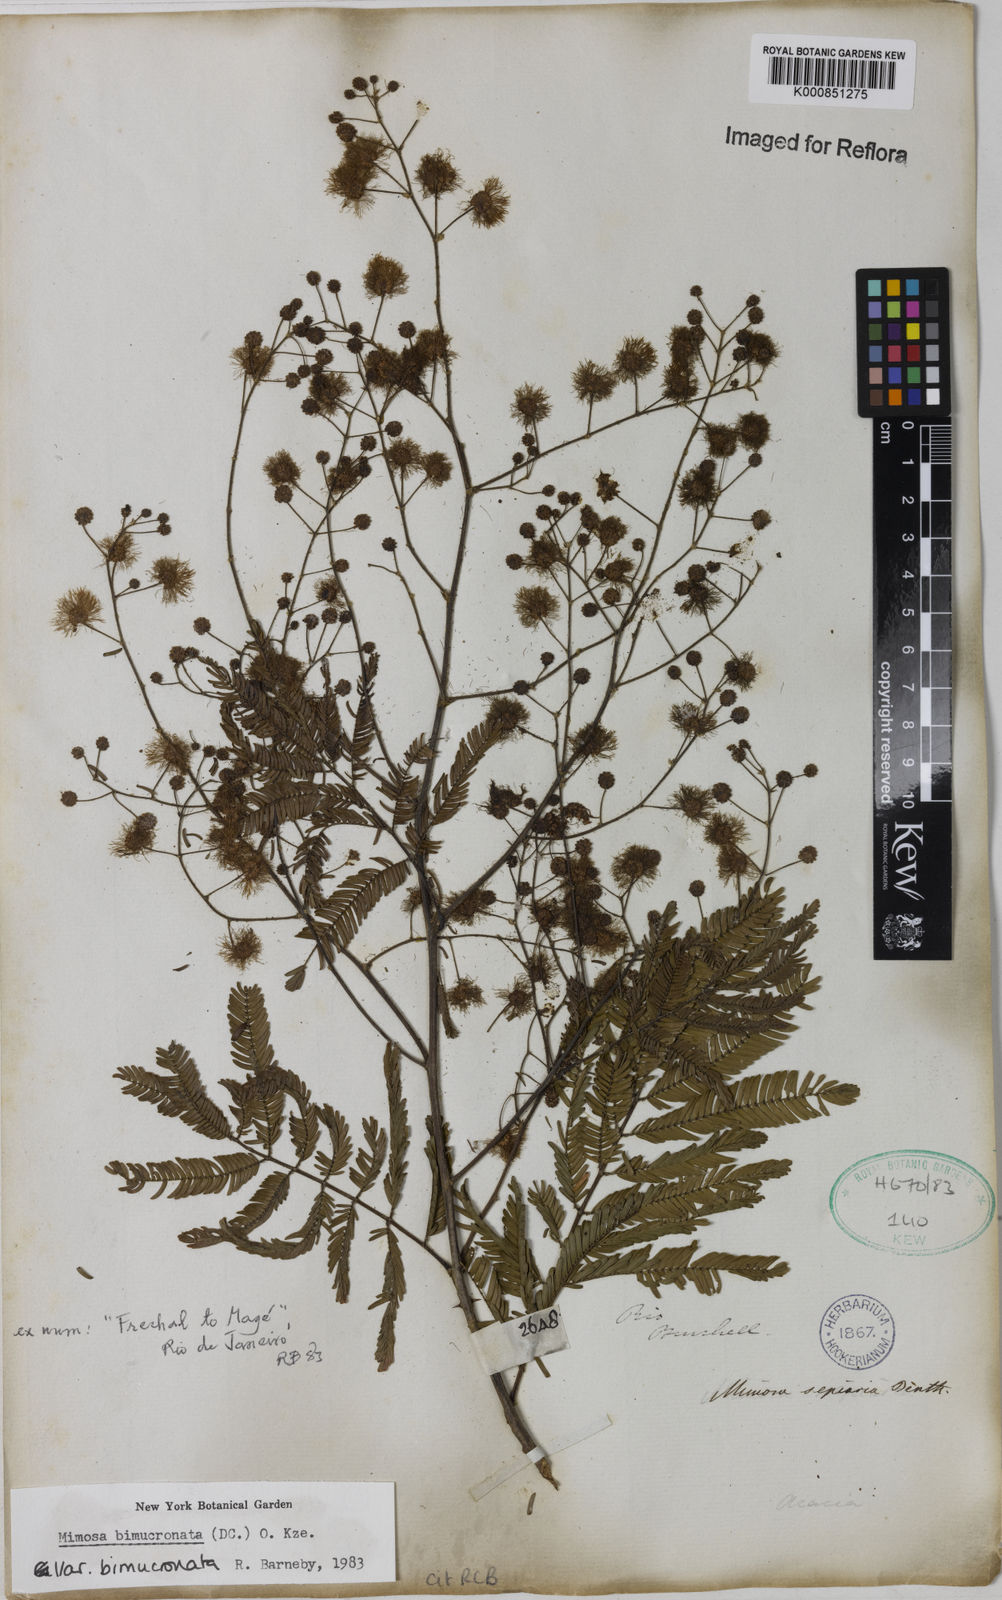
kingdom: Plantae
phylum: Tracheophyta
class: Magnoliopsida
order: Fabales
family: Fabaceae
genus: Mimosa
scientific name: Mimosa bimucronata
